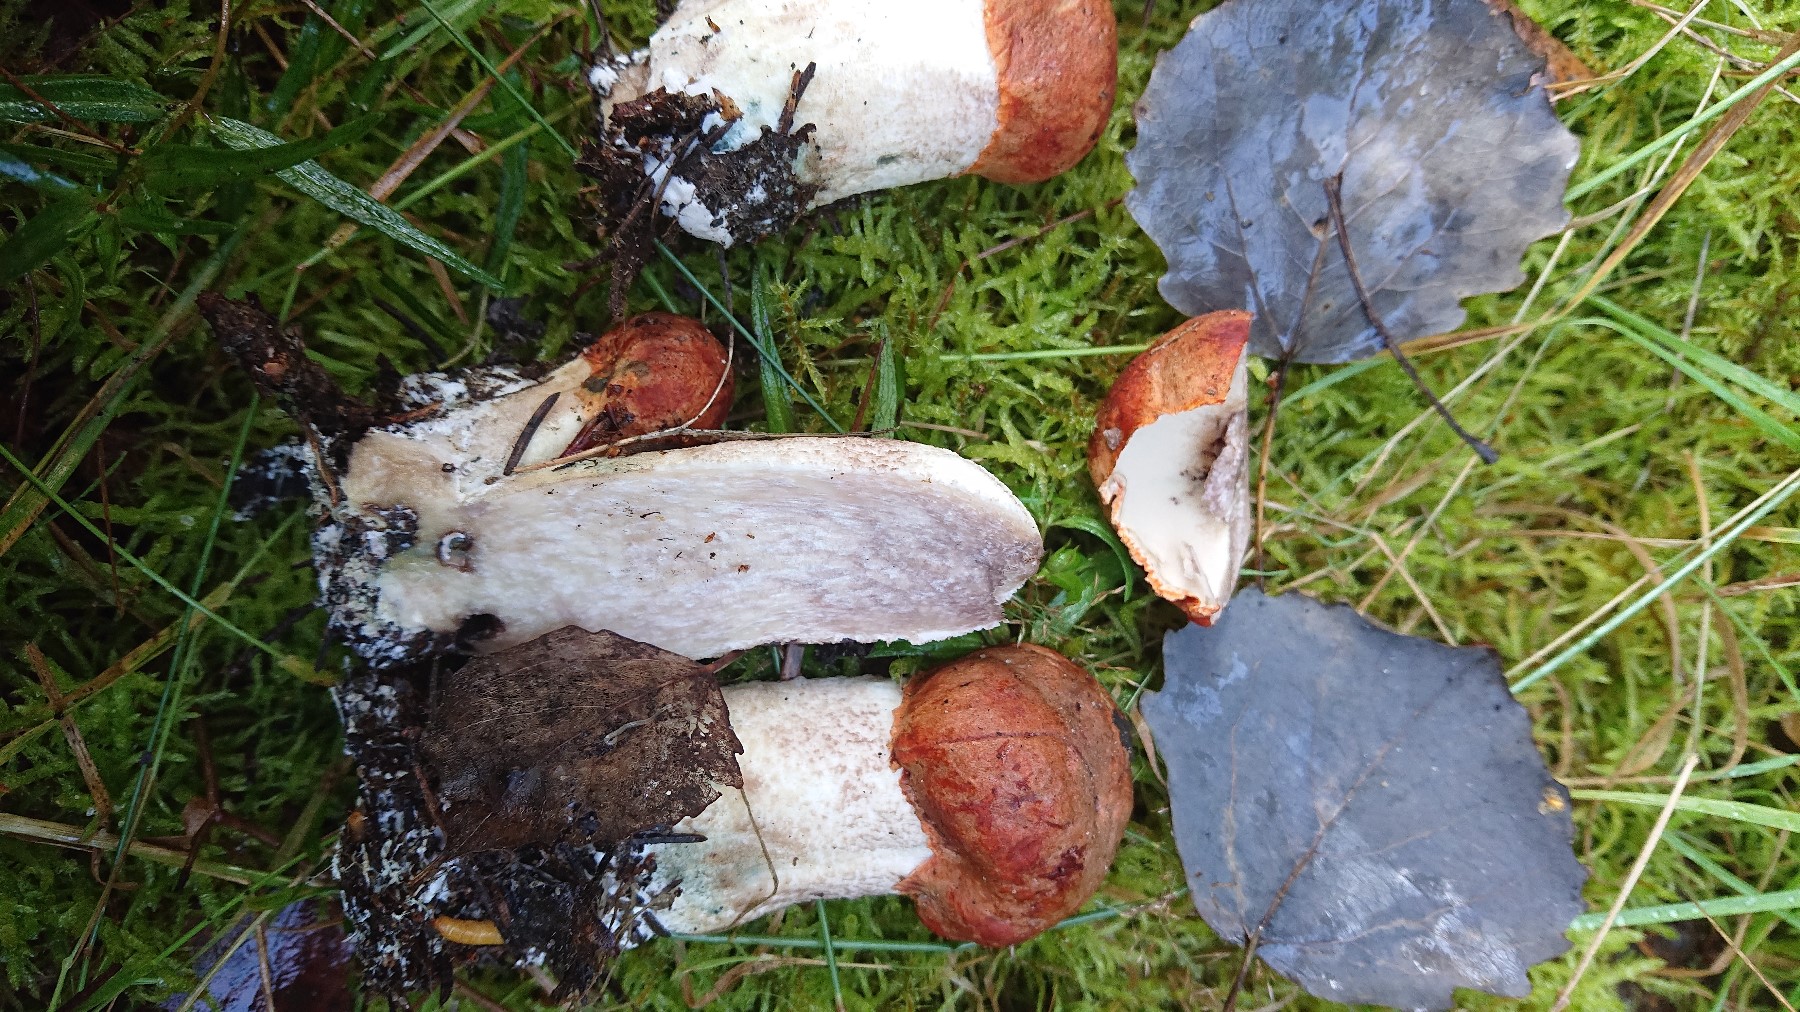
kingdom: Fungi
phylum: Basidiomycota
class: Agaricomycetes
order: Boletales
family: Boletaceae
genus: Leccinum
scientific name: Leccinum albostipitatum
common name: aspe-skælrørhat
